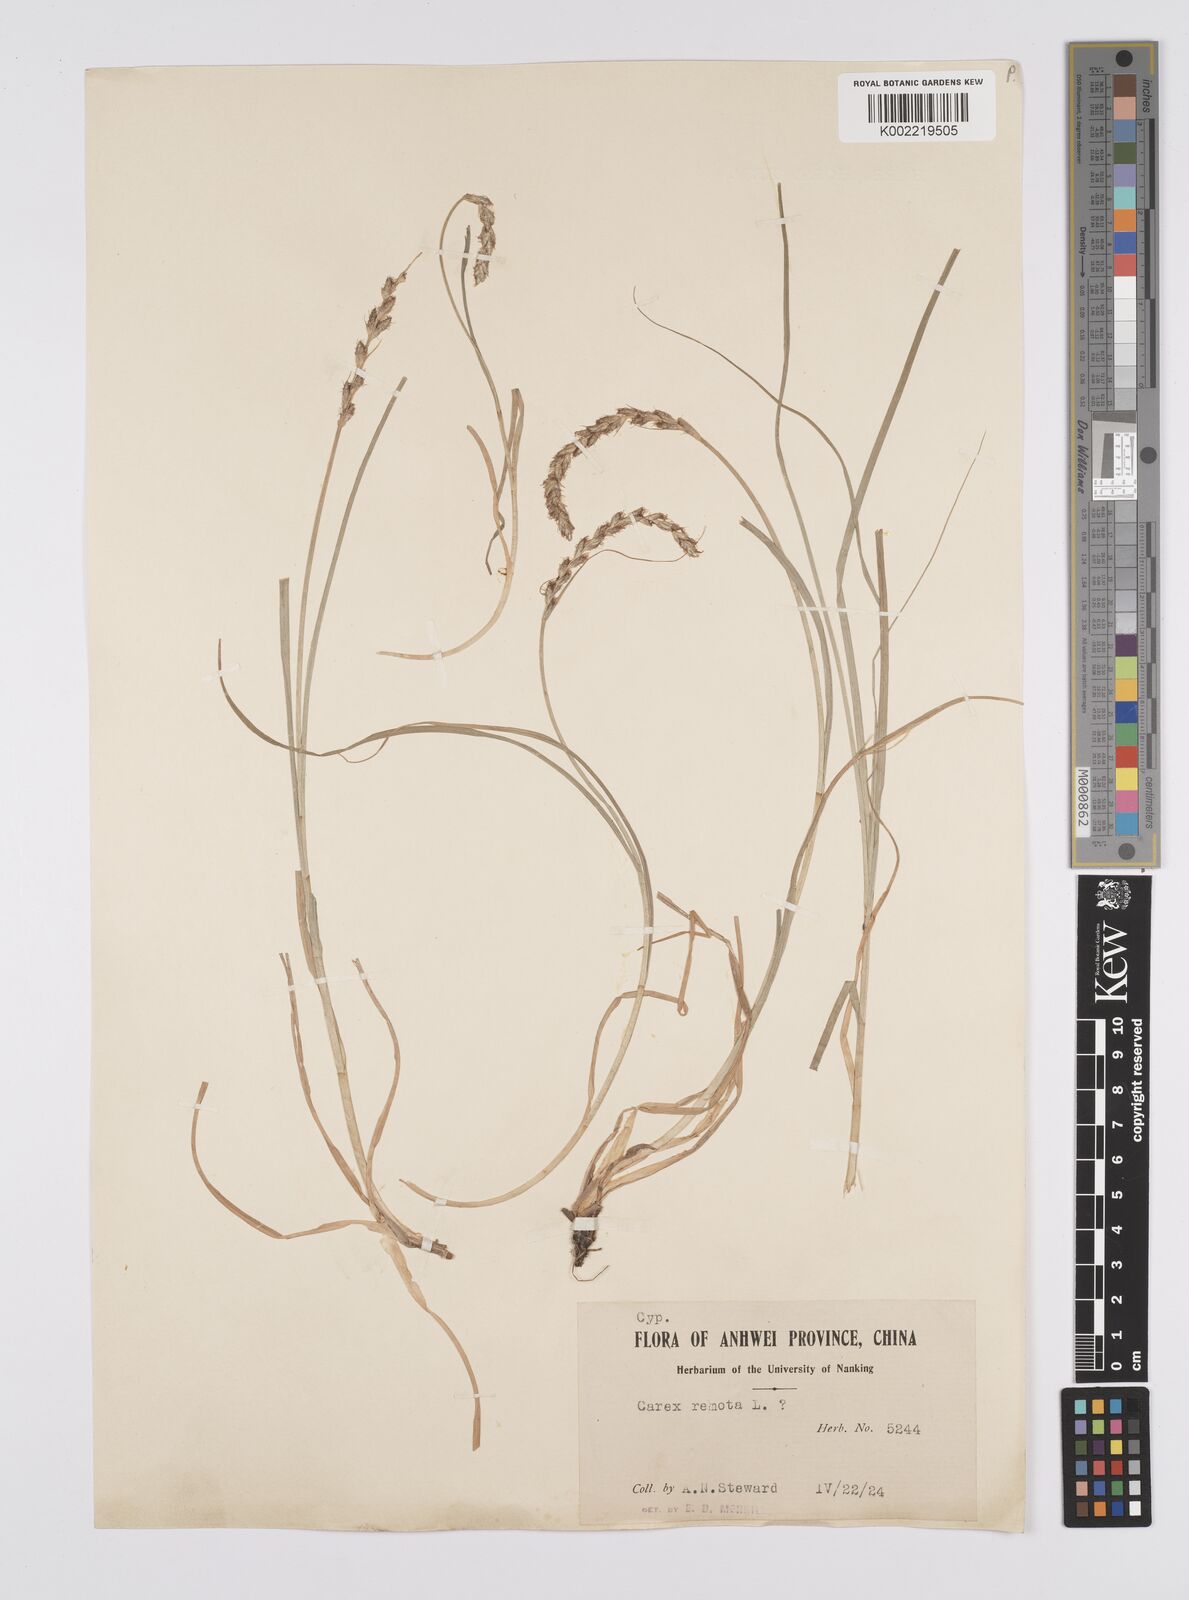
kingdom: Plantae
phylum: Tracheophyta
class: Liliopsida
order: Poales
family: Cyperaceae
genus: Carex
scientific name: Carex nubigena
